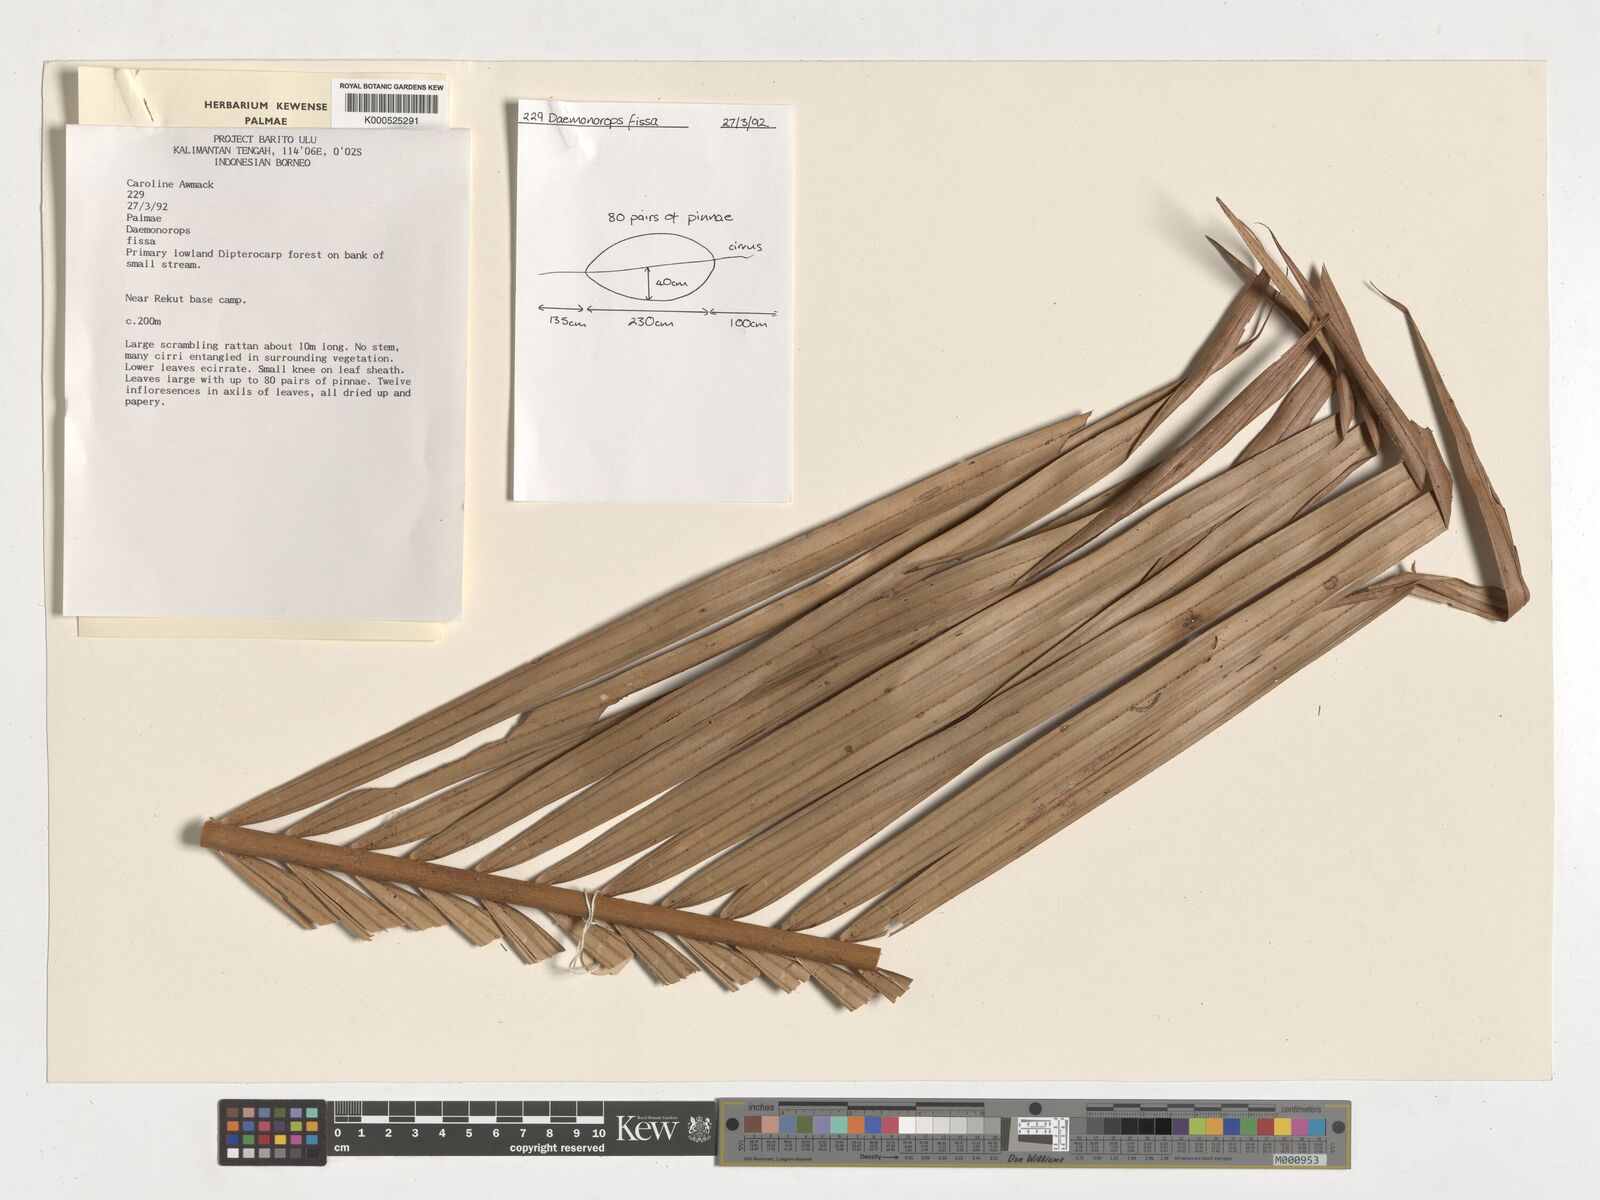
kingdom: Plantae
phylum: Tracheophyta
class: Liliopsida
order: Arecales
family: Arecaceae
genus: Calamus
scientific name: Calamus melanochaetes
